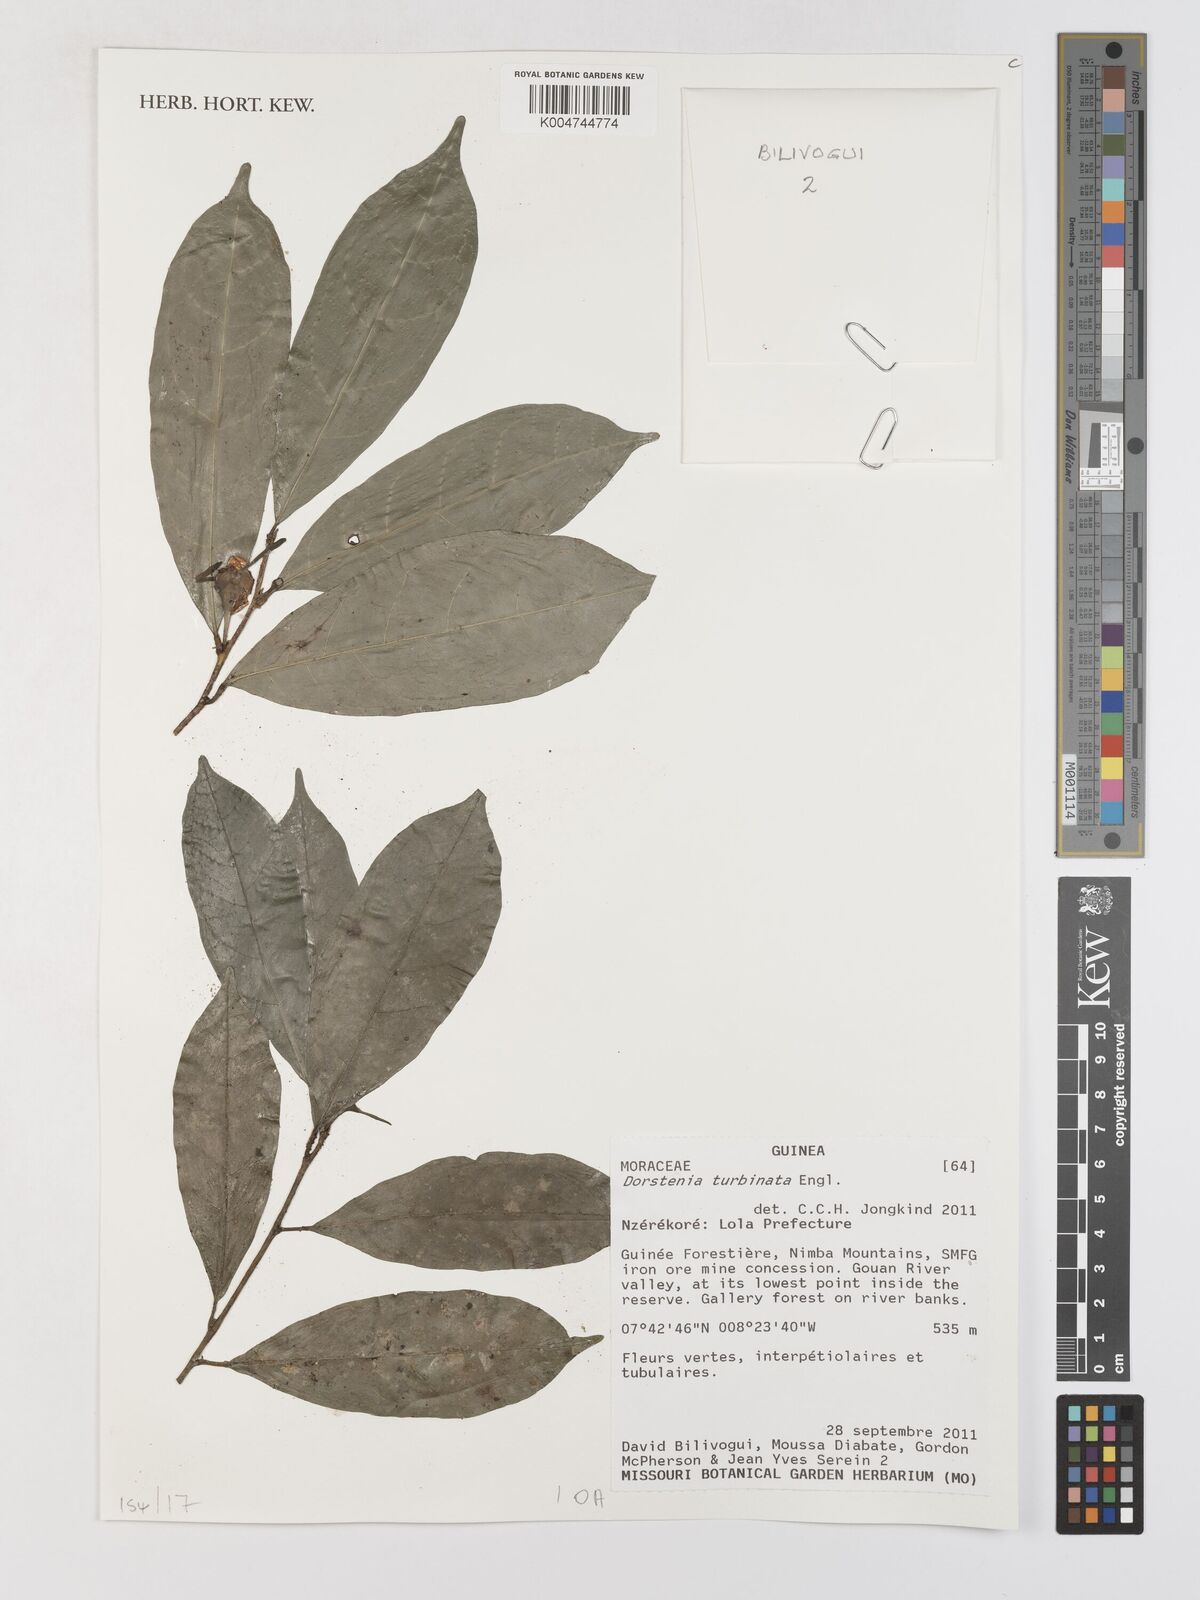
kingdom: Plantae
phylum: Tracheophyta
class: Magnoliopsida
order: Rosales
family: Moraceae
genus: Hijmania
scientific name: Hijmania turbinata
